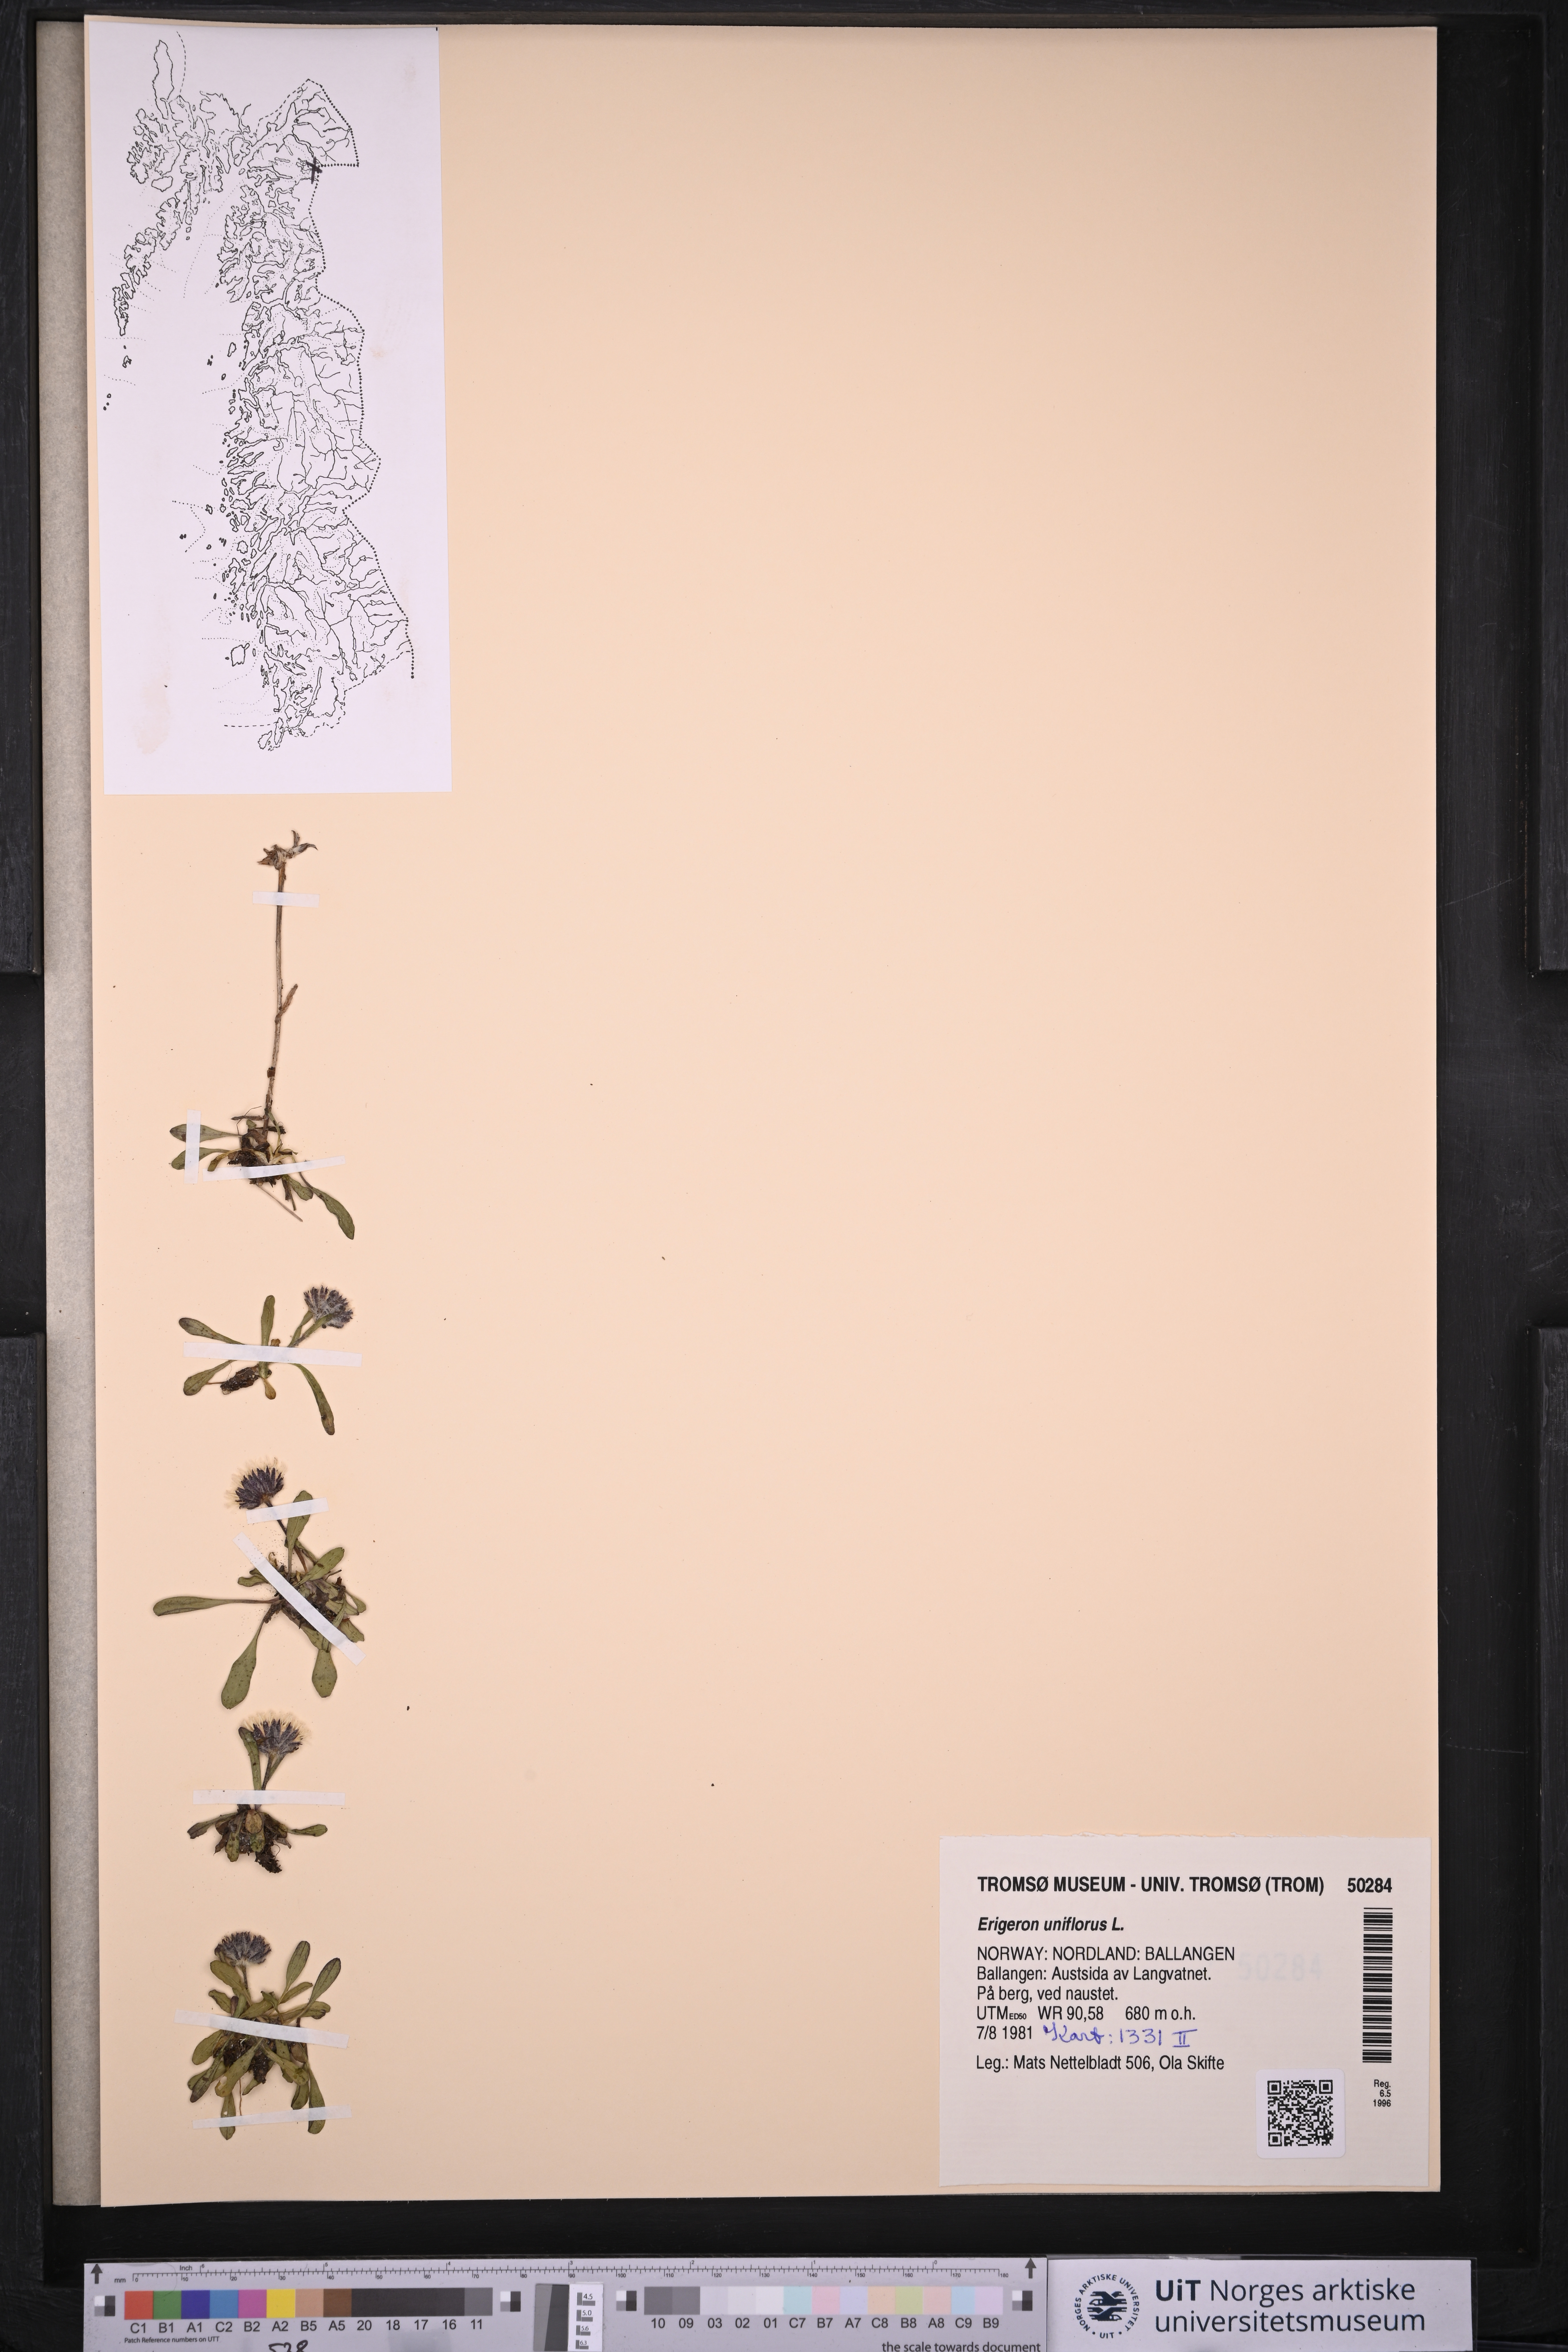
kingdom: Plantae
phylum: Tracheophyta
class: Magnoliopsida
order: Asterales
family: Asteraceae
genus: Erigeron
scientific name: Erigeron uniflorus
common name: Northern daisy
